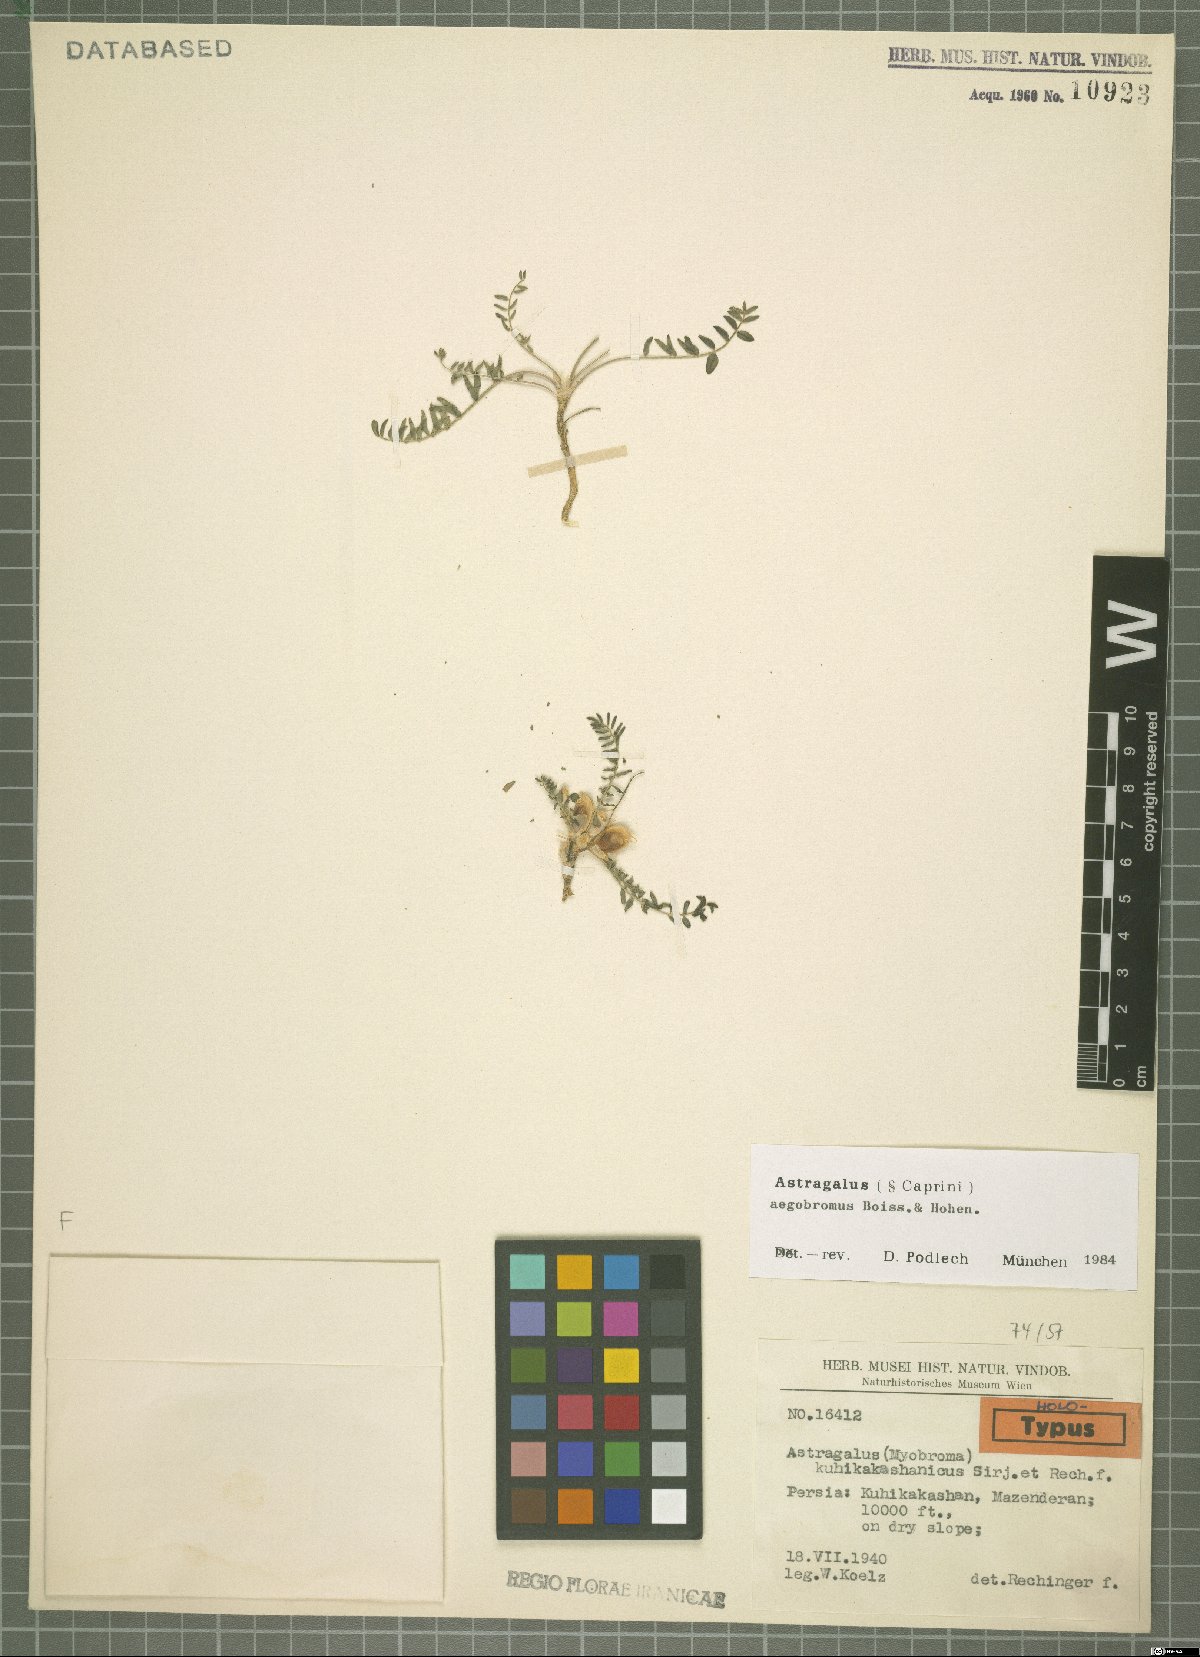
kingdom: Plantae
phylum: Tracheophyta
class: Magnoliopsida
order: Fabales
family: Fabaceae
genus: Astragalus
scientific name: Astragalus aegobromus
